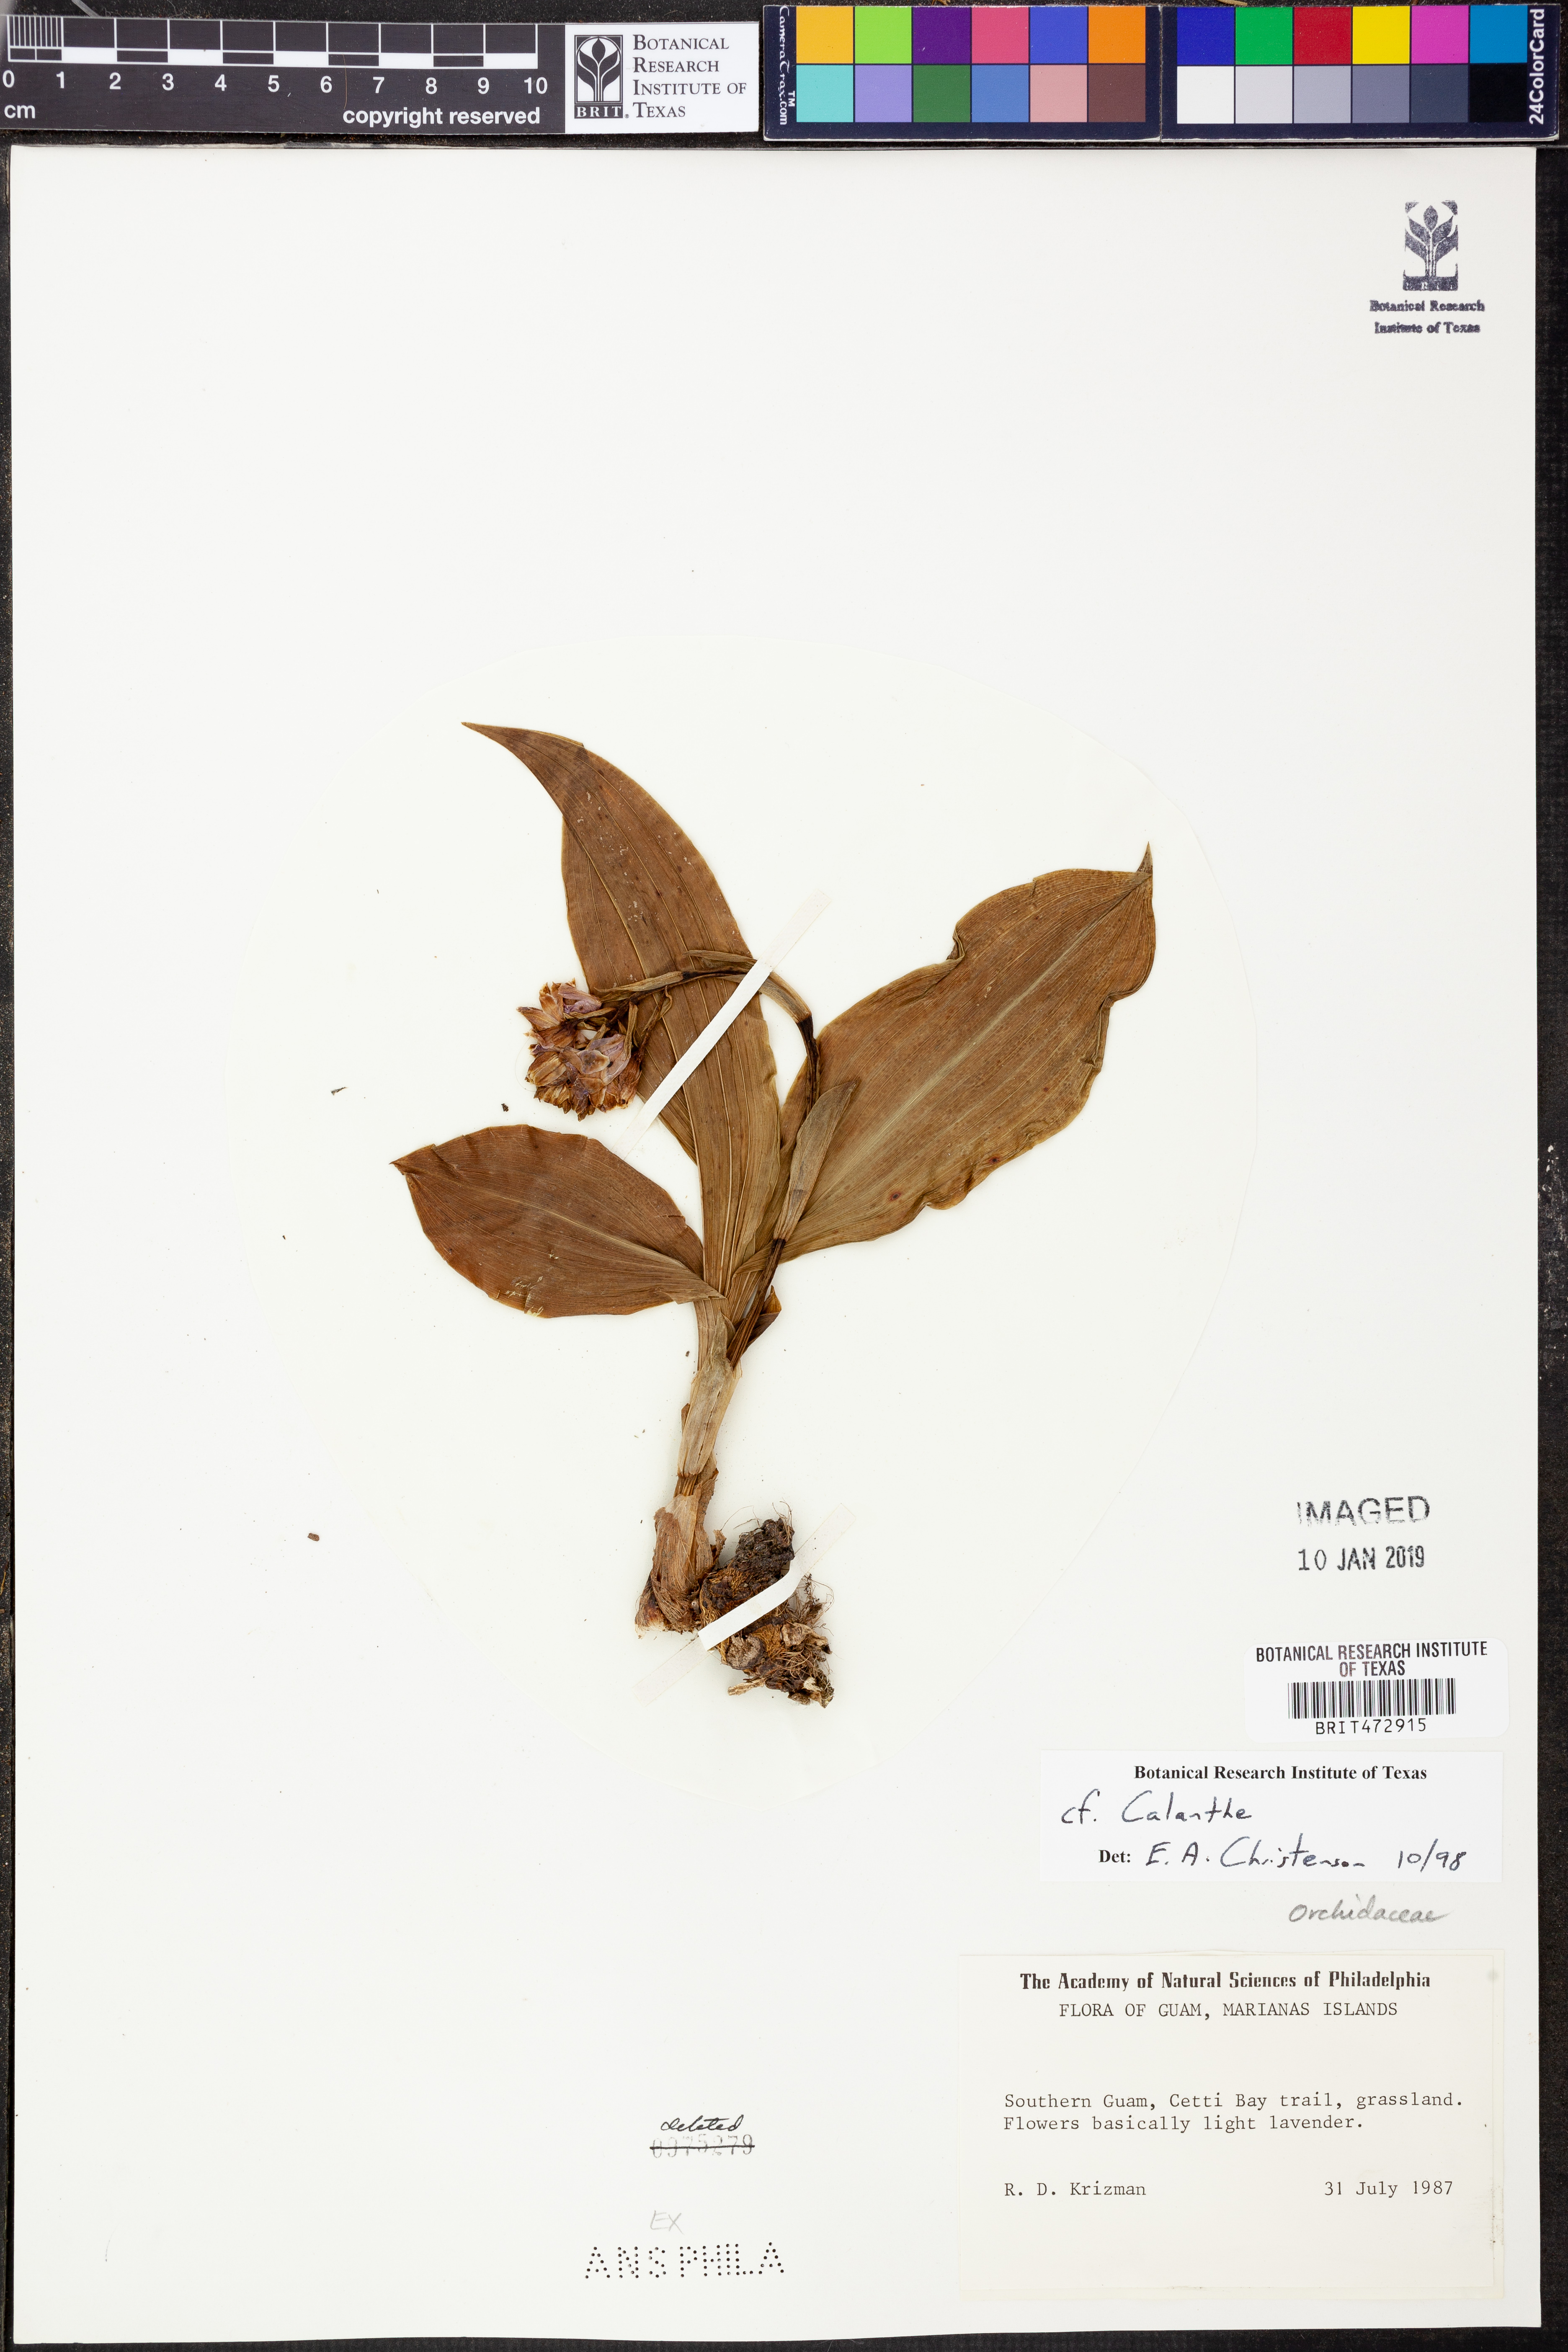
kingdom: Plantae
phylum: Tracheophyta
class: Liliopsida
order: Asparagales
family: Orchidaceae
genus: Calanthe
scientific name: Calanthe
